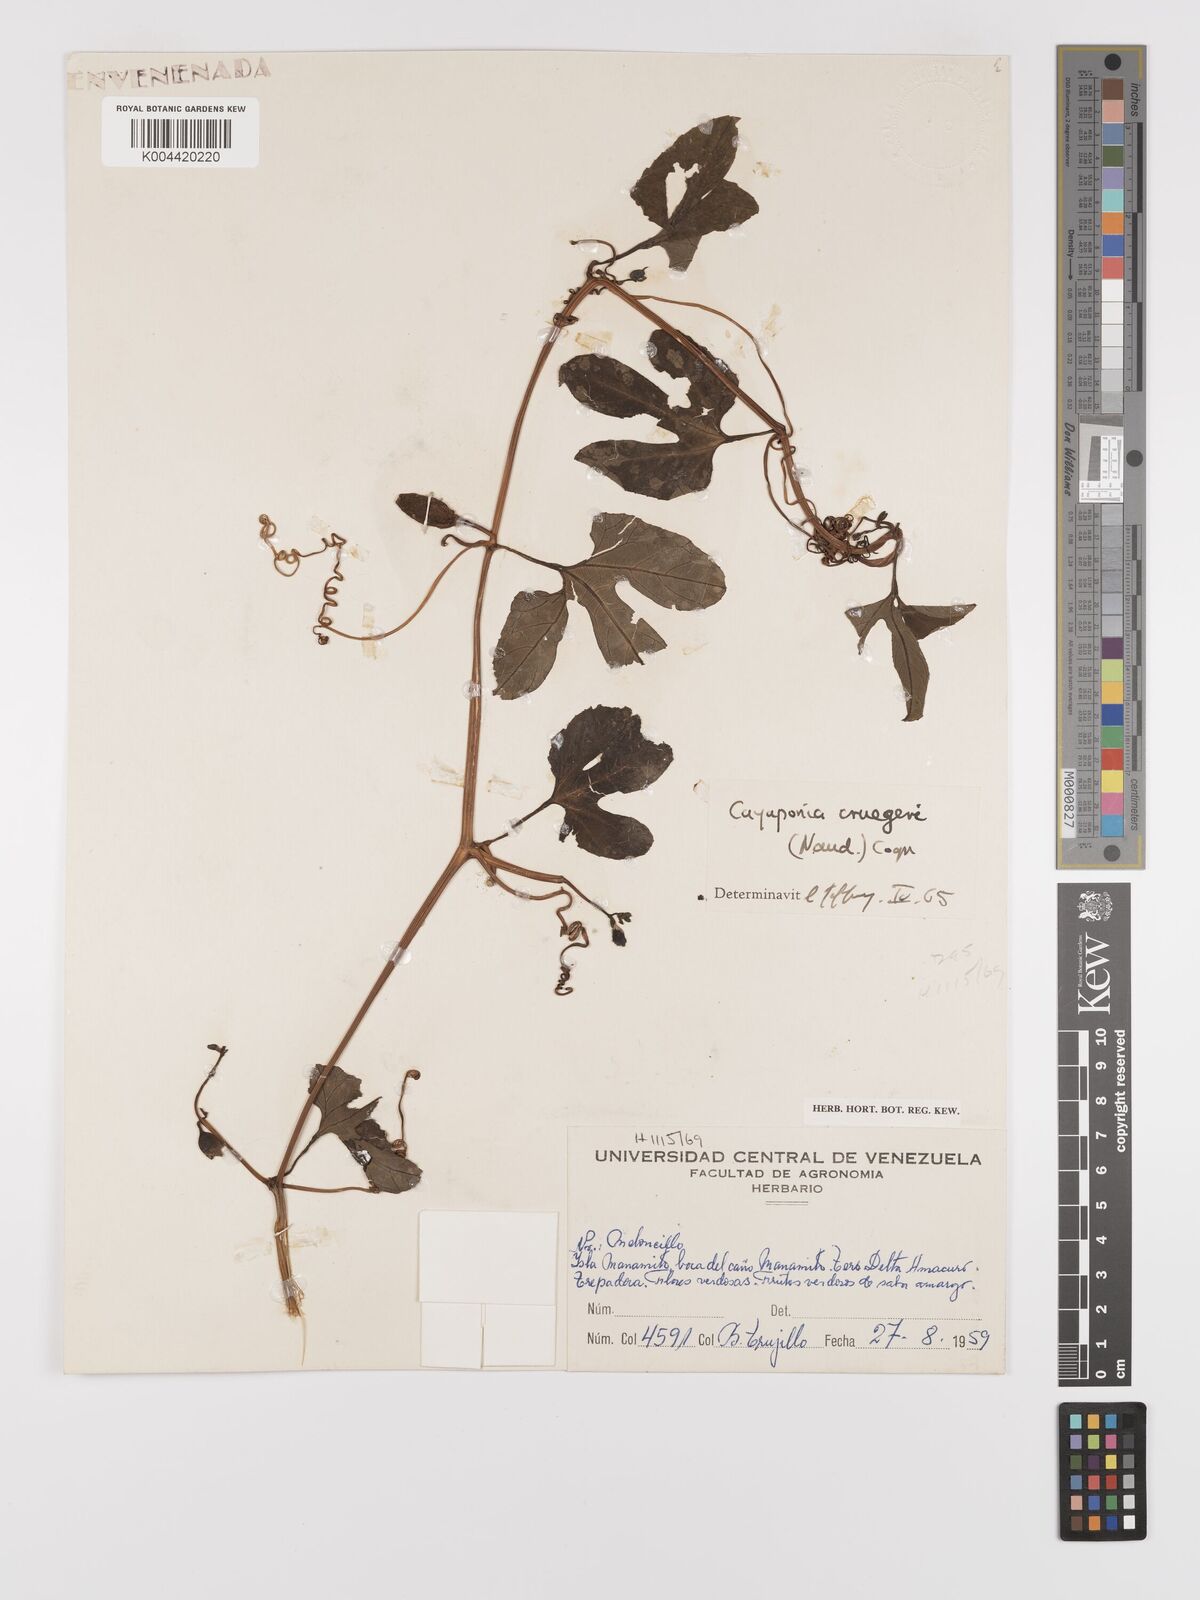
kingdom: Plantae
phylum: Tracheophyta
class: Magnoliopsida
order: Cucurbitales
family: Cucurbitaceae
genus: Cayaponia
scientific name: Cayaponia cruegeri
